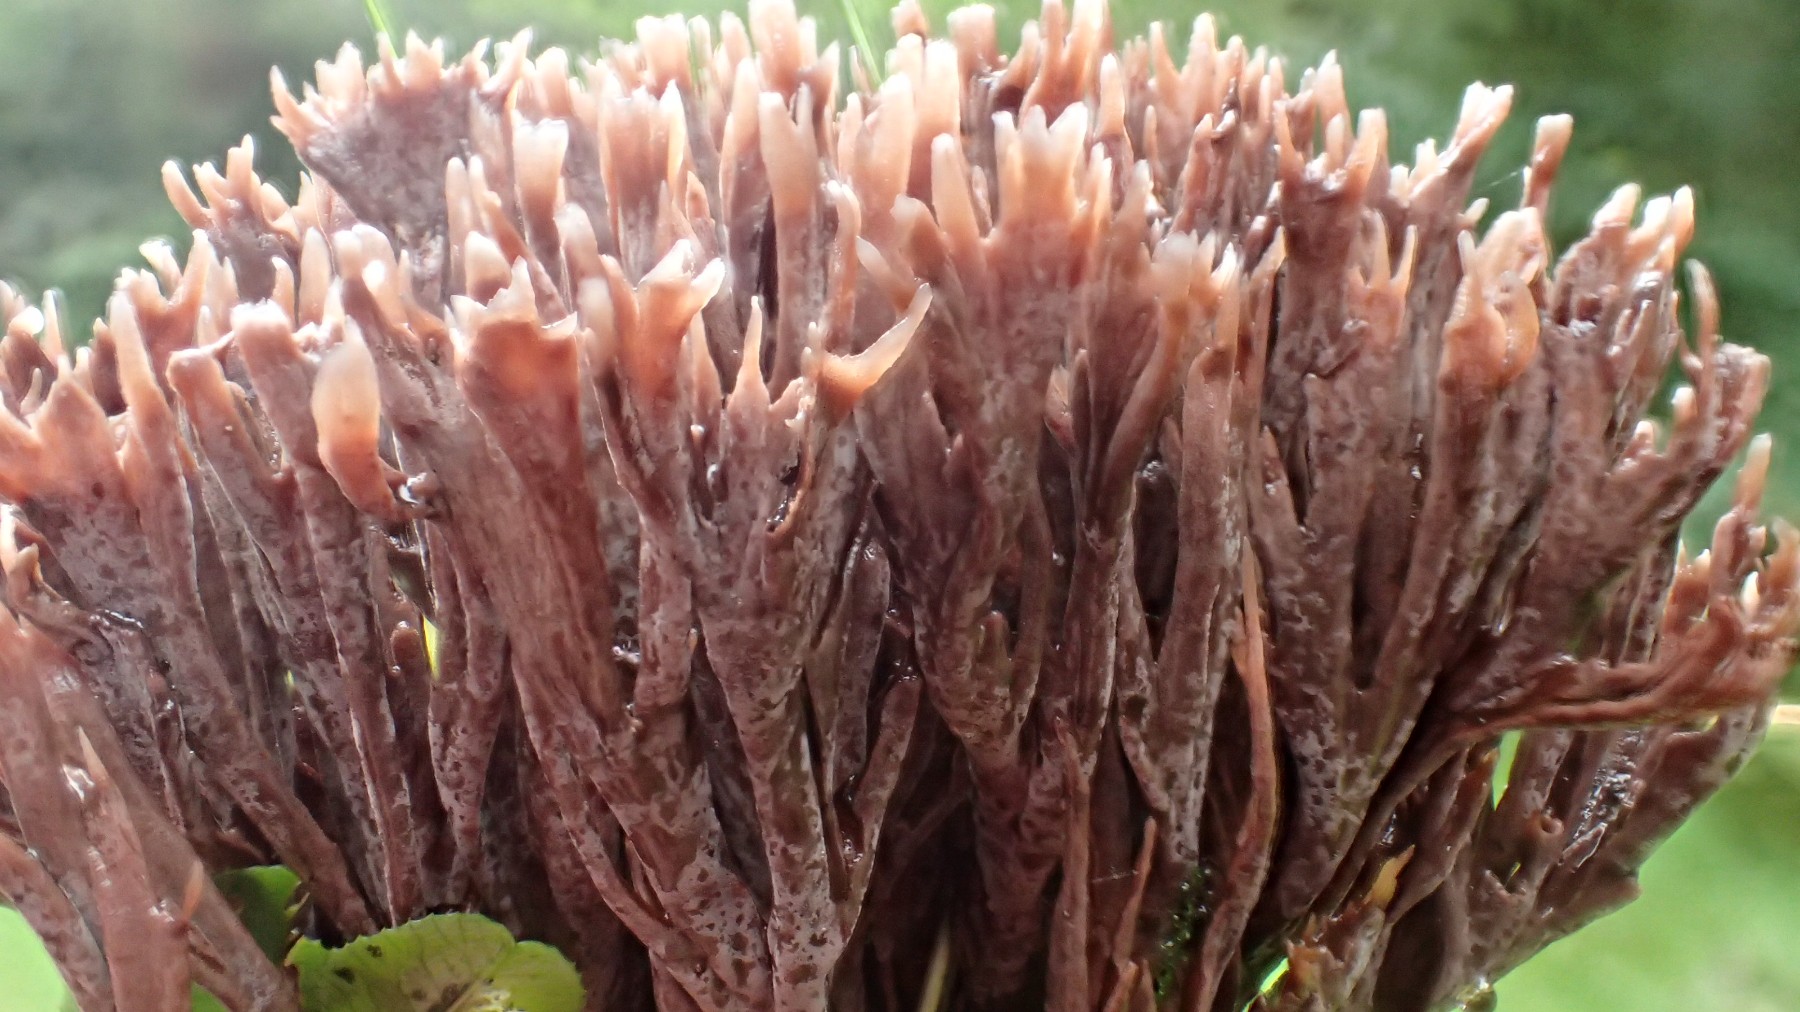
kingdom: Fungi
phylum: Basidiomycota
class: Agaricomycetes
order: Thelephorales
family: Thelephoraceae
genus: Thelephora
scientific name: Thelephora palmata
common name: grenet frynsesvamp
